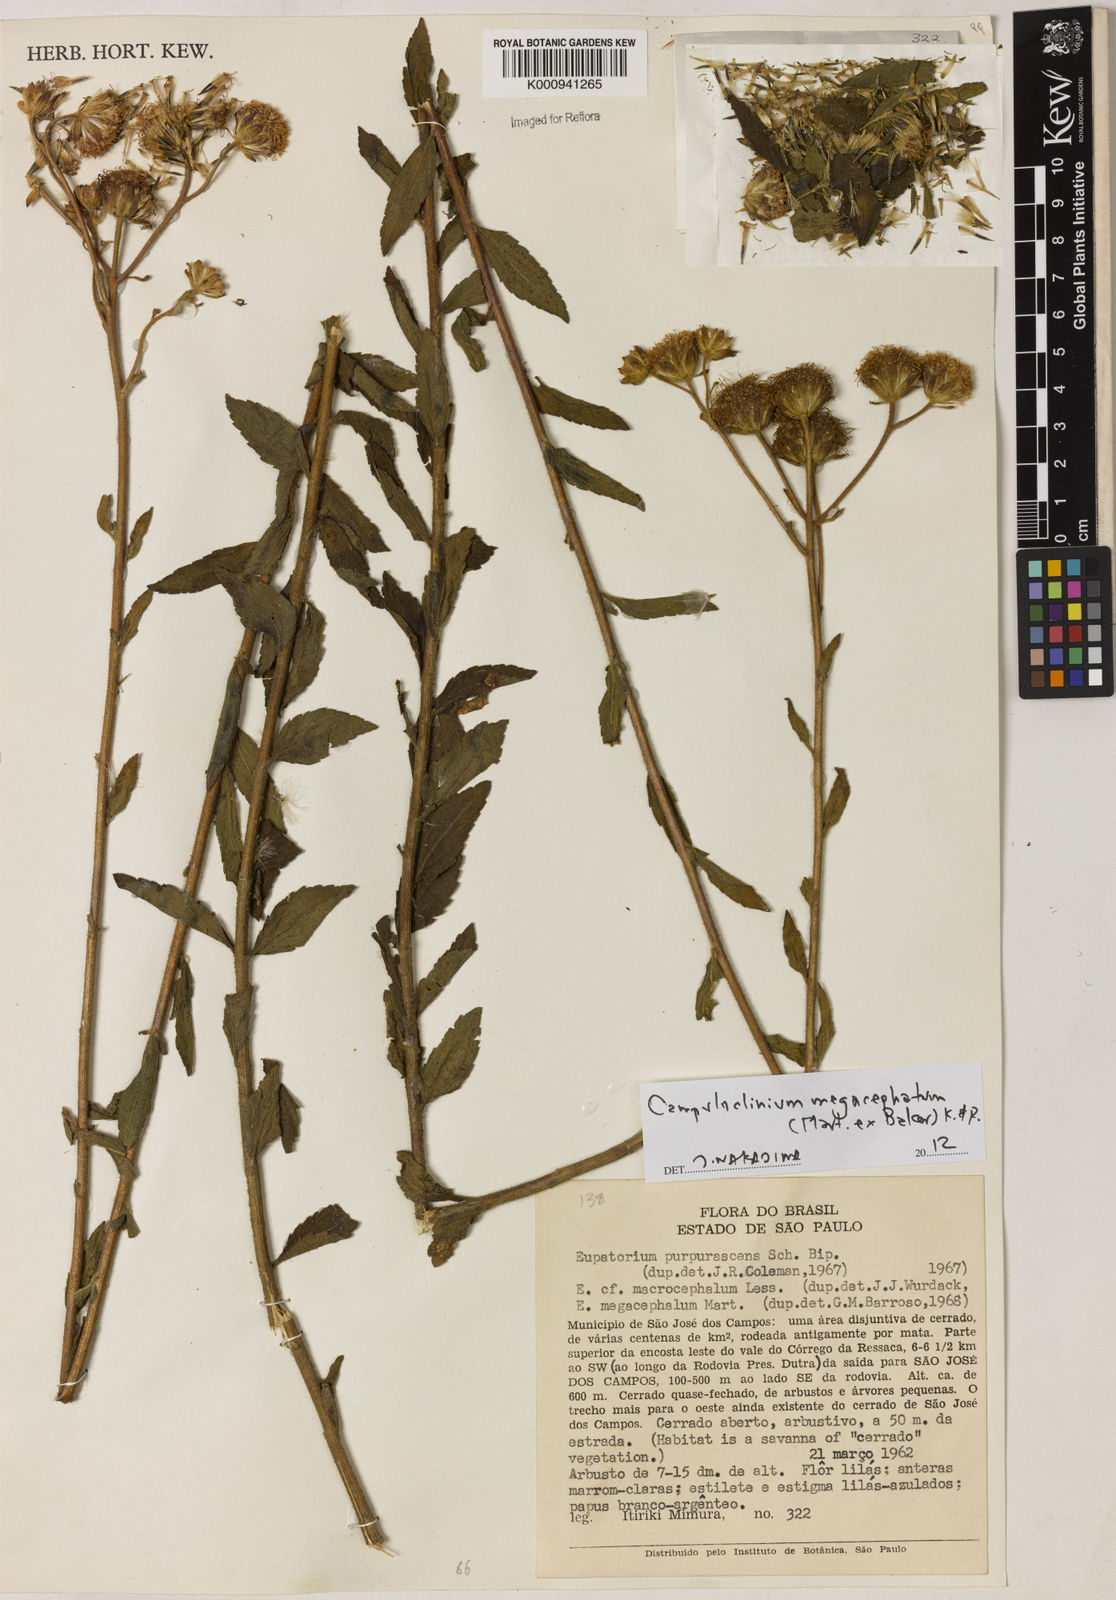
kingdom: Plantae
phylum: Tracheophyta
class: Magnoliopsida
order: Asterales
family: Asteraceae
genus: Campuloclinium
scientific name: Campuloclinium megacephalum
